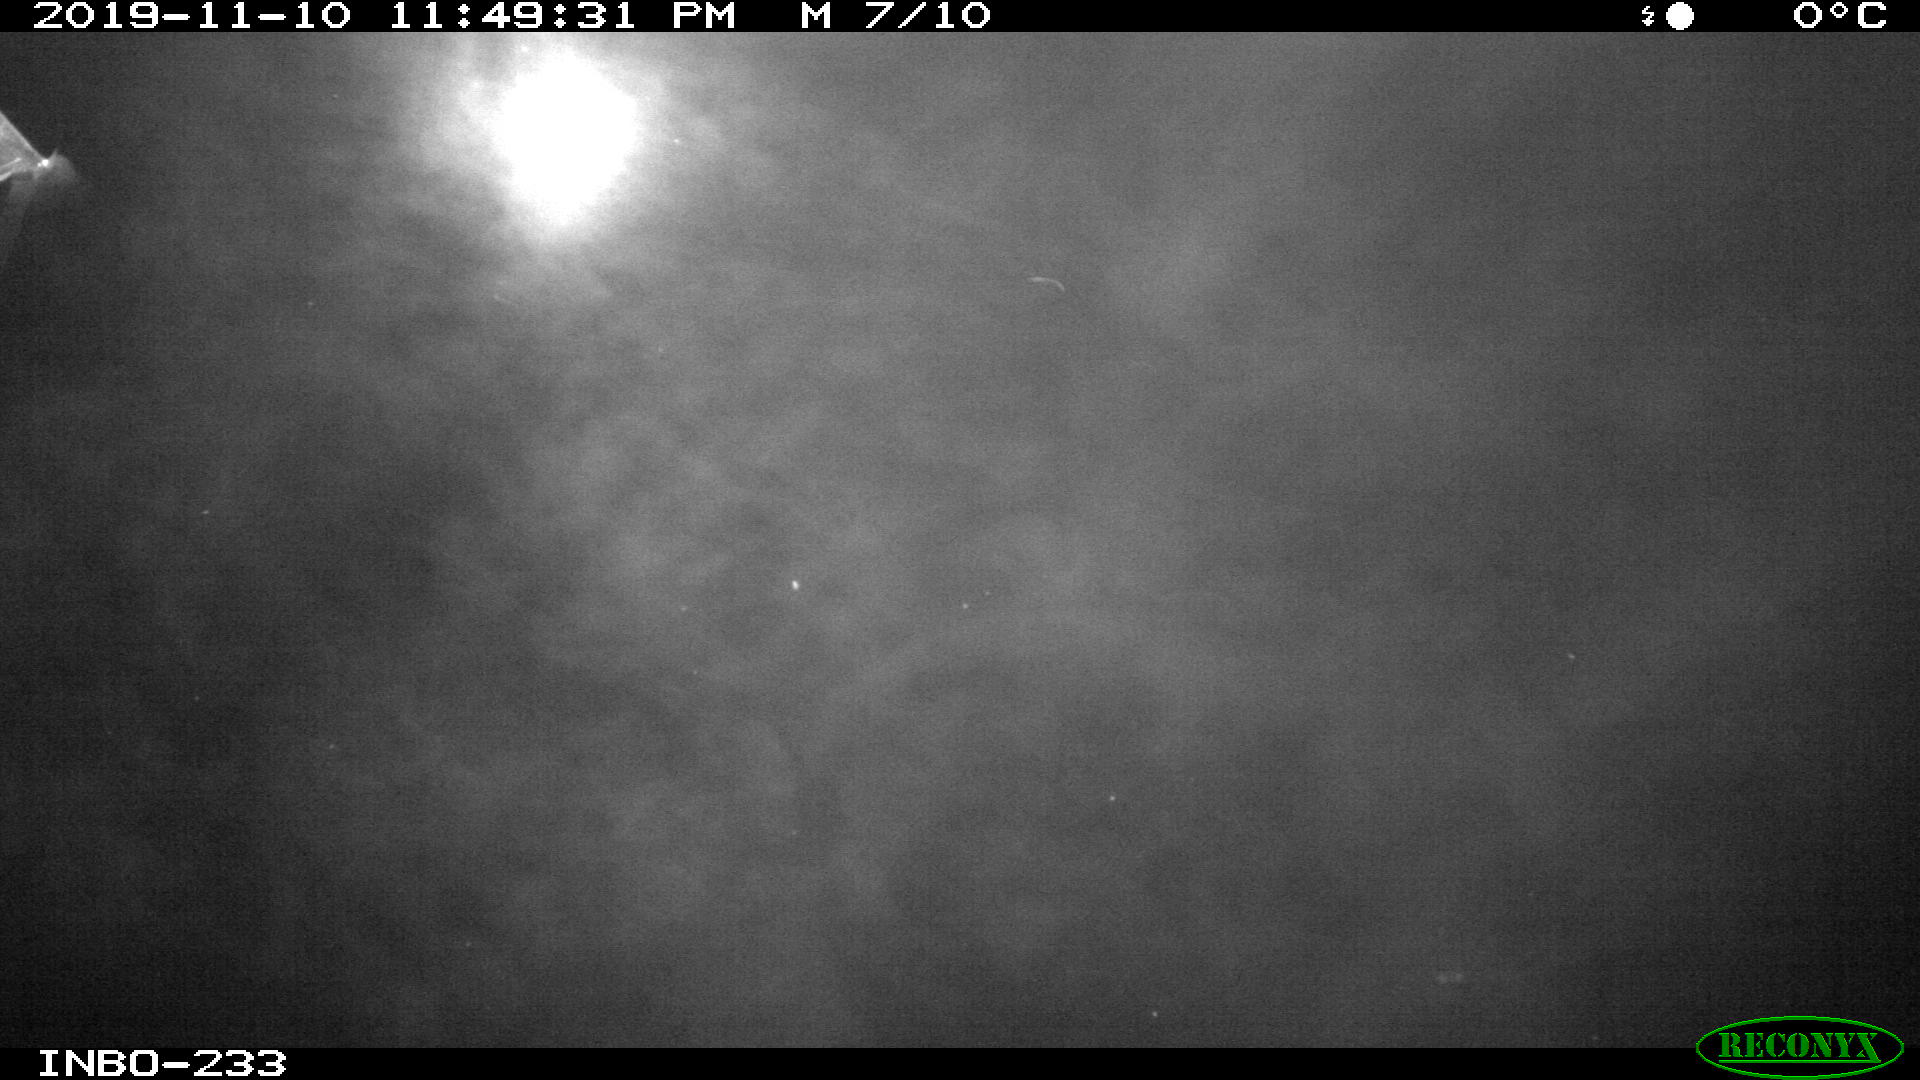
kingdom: Animalia
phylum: Chordata
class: Aves
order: Anseriformes
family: Anatidae
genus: Anas
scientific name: Anas platyrhynchos
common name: Mallard
